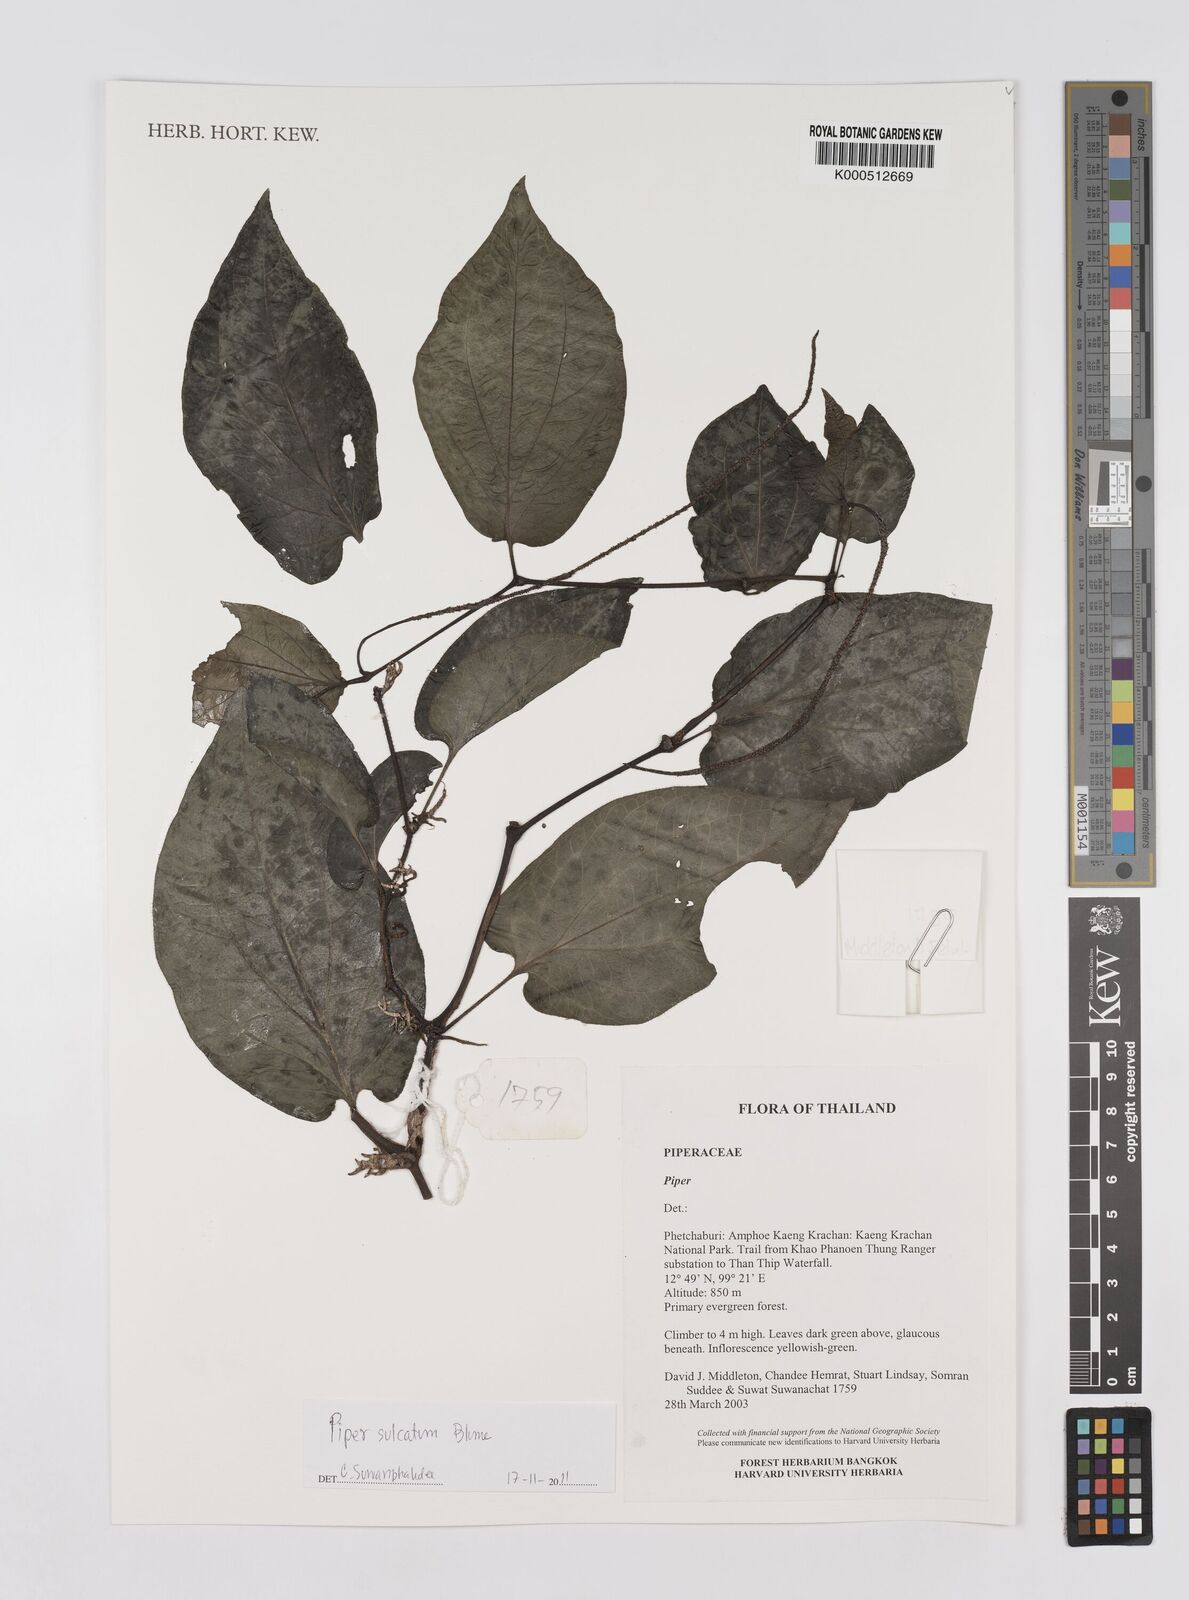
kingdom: Plantae
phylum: Tracheophyta
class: Magnoliopsida
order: Piperales
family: Piperaceae
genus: Piper
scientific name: Piper
